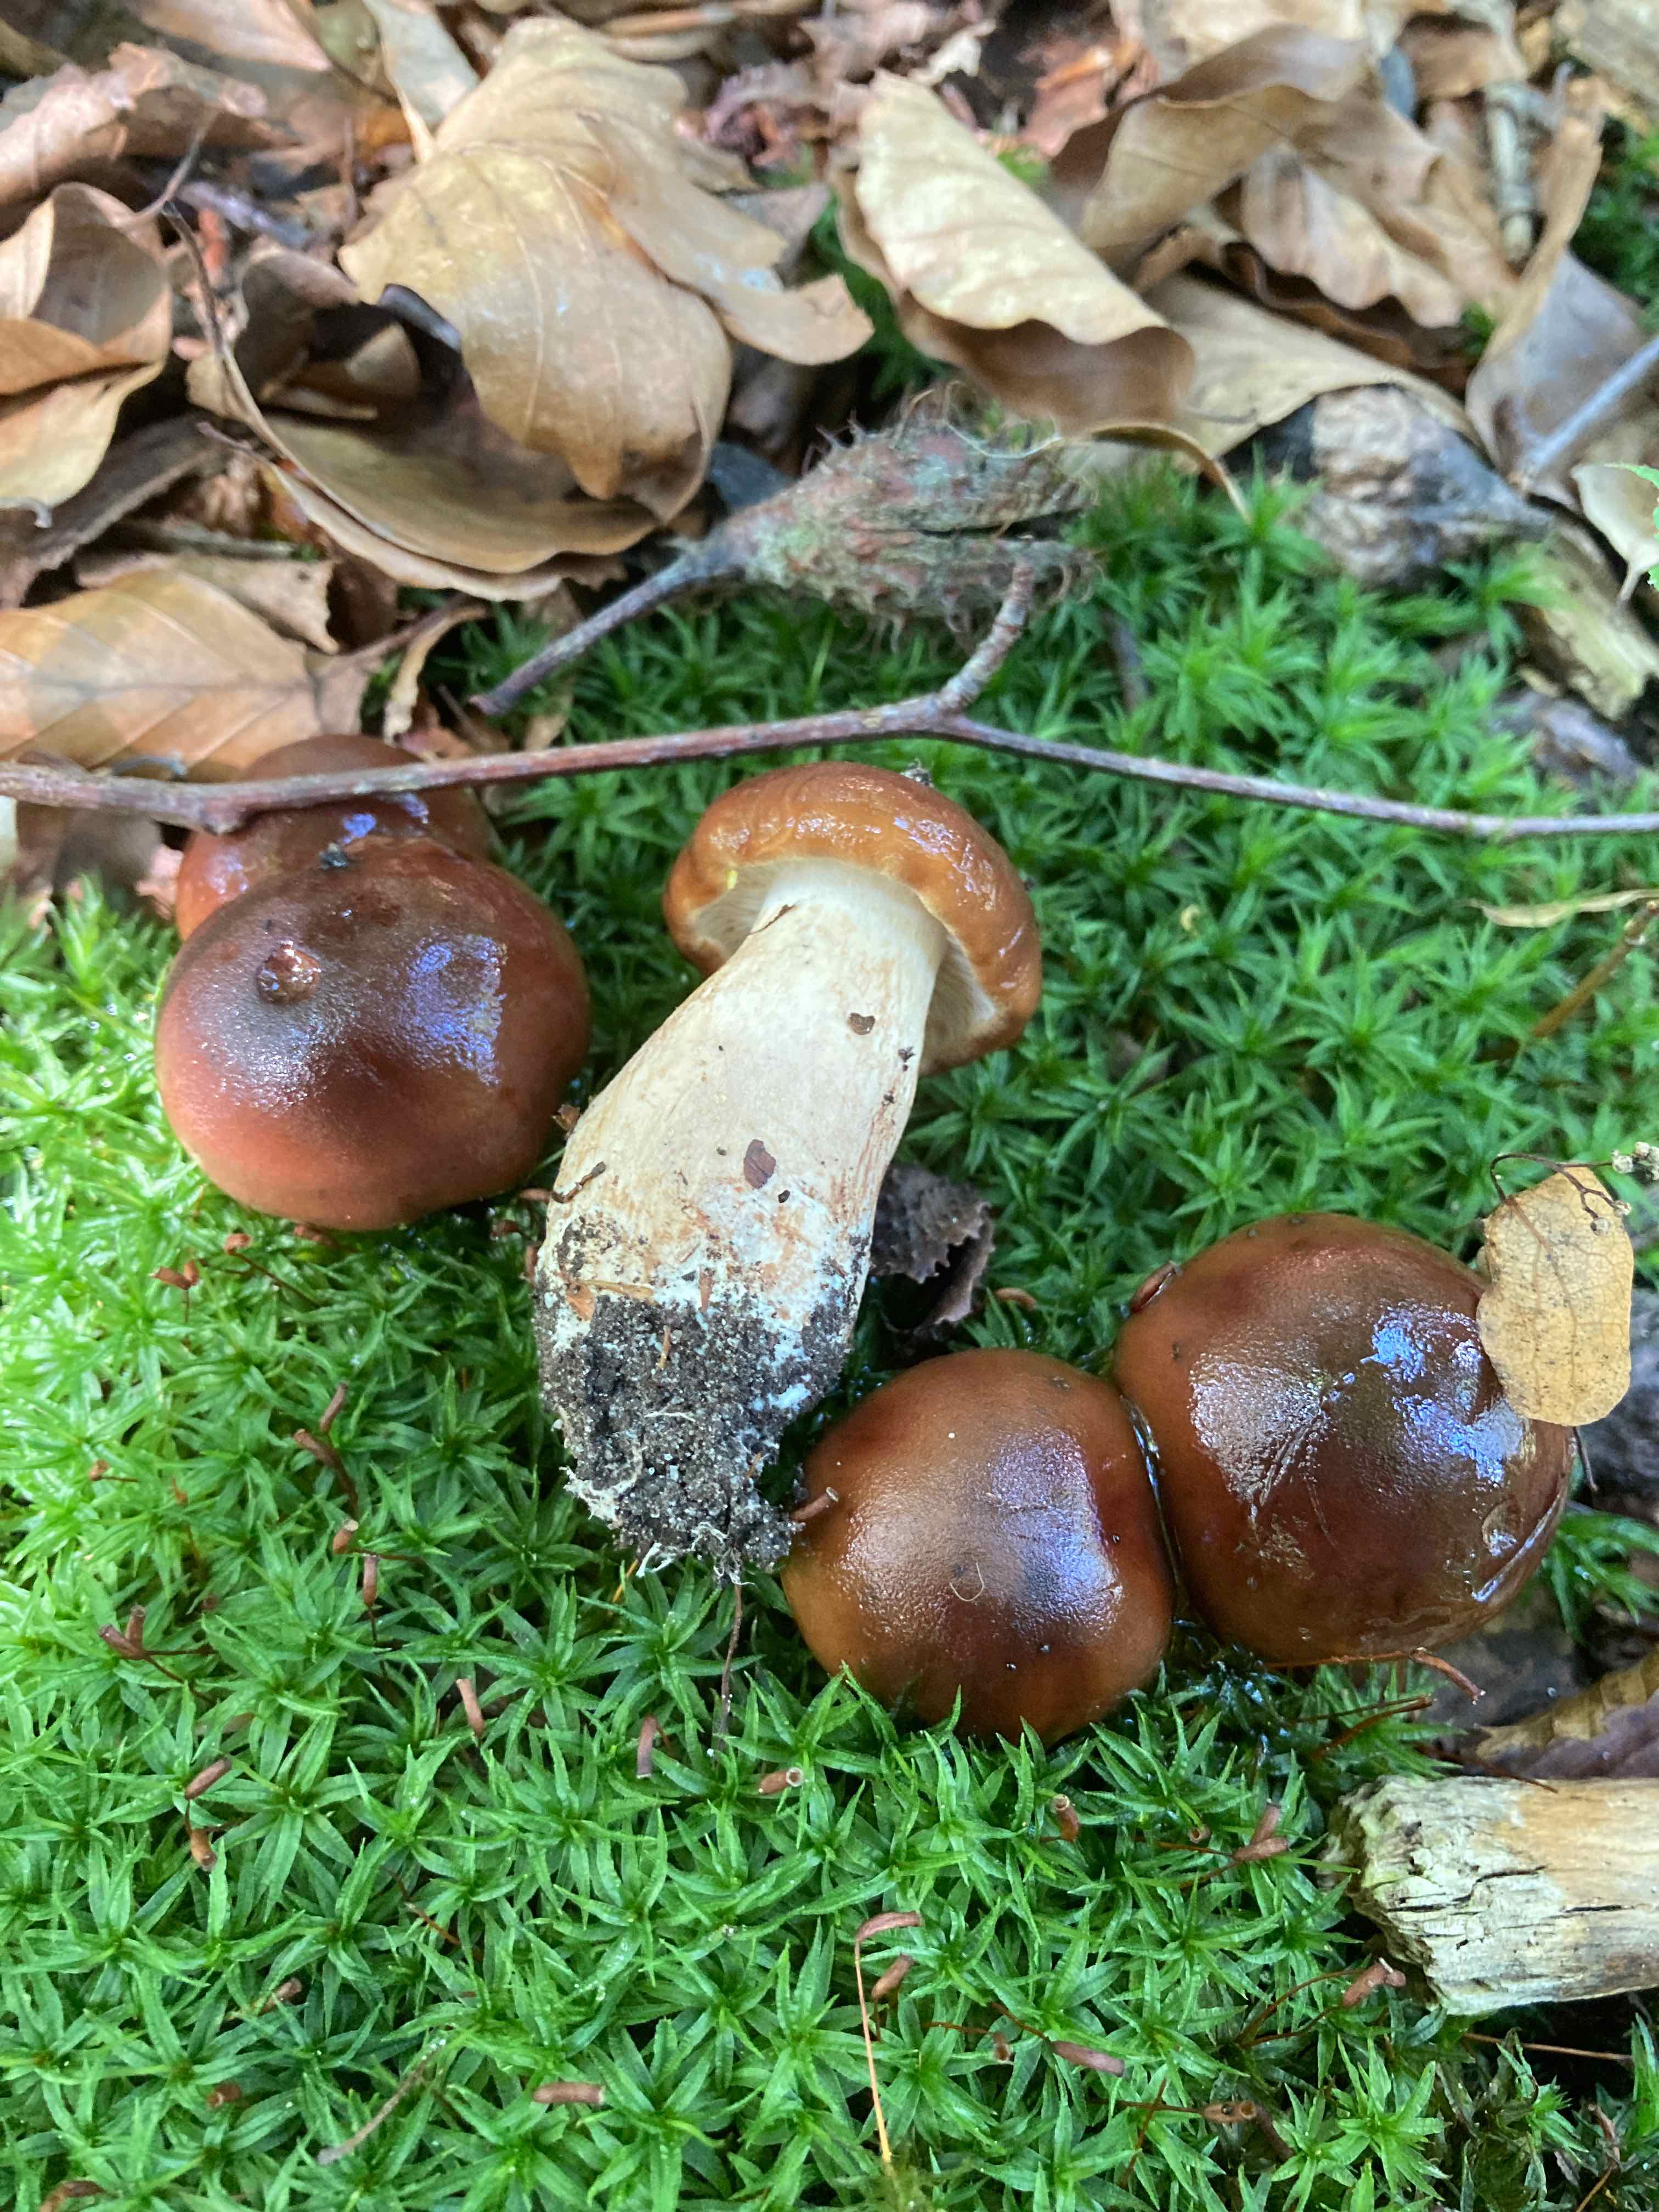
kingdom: Fungi
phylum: Basidiomycota
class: Agaricomycetes
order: Agaricales
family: Tricholomataceae
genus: Tricholoma
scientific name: Tricholoma ustale
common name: sveden ridderhat
